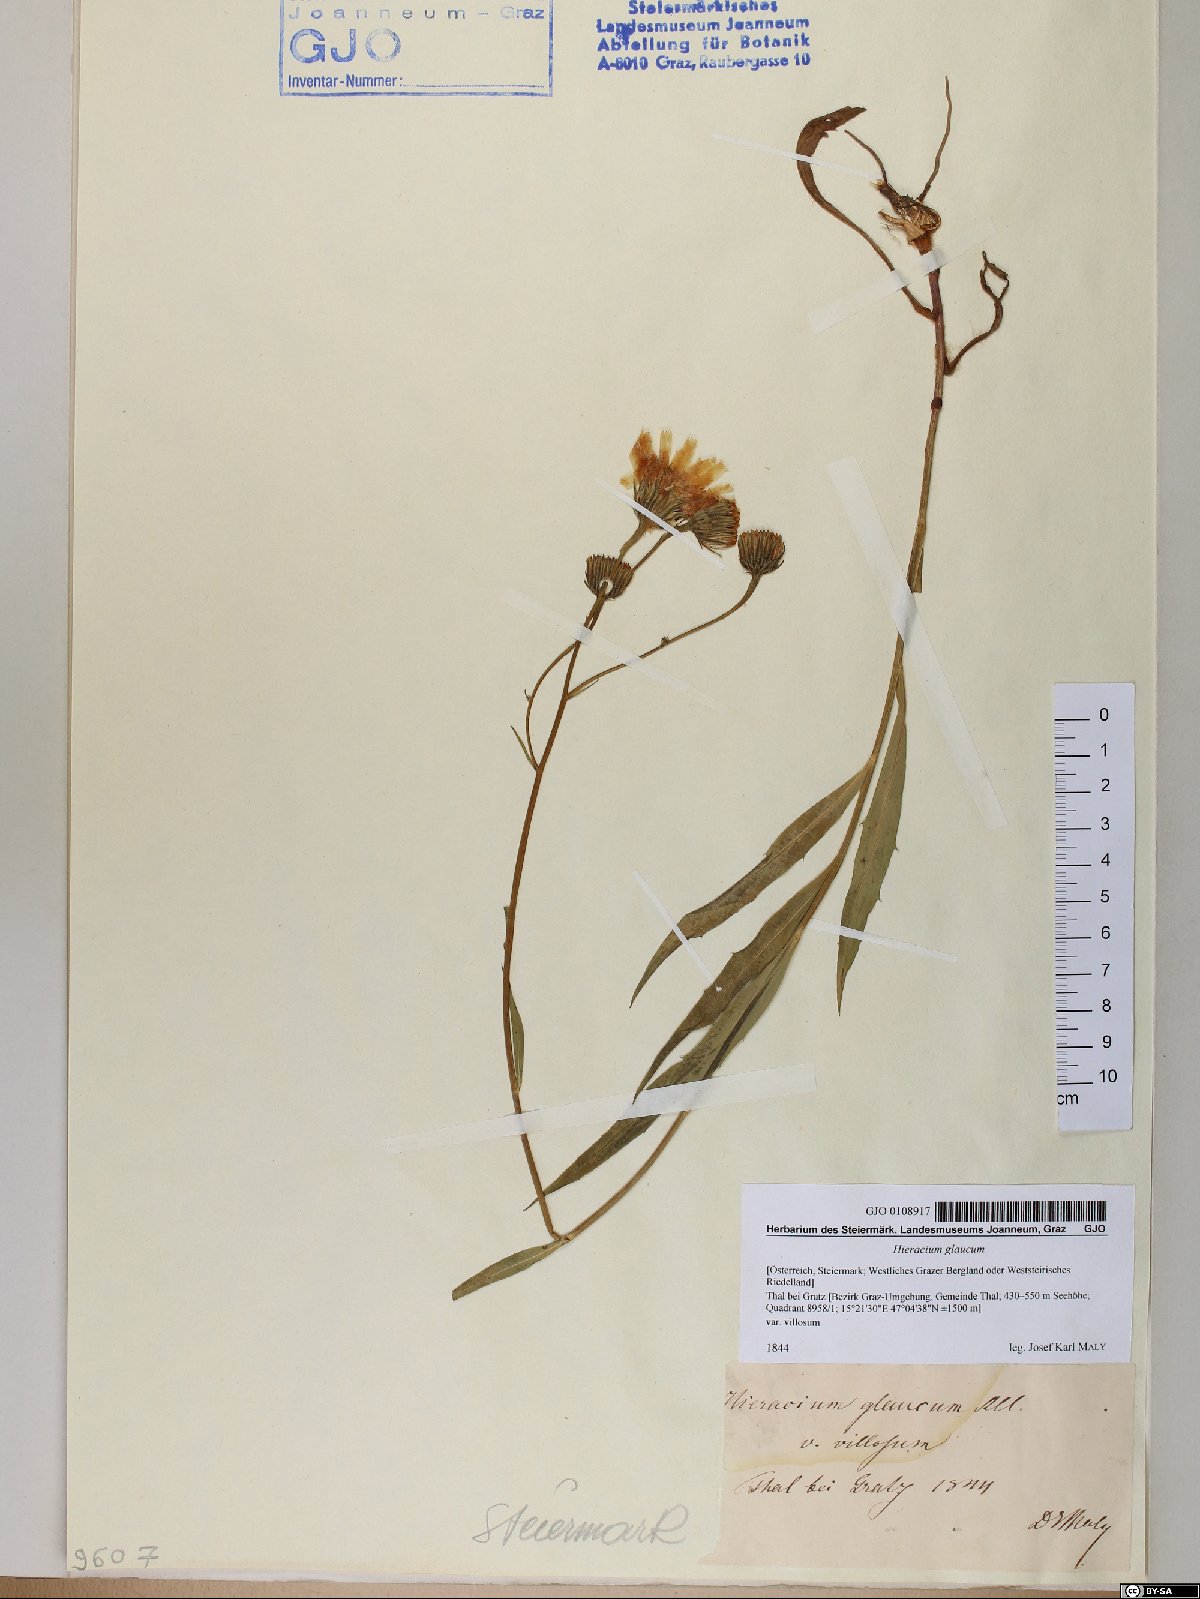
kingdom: Plantae
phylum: Tracheophyta
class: Magnoliopsida
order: Asterales
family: Asteraceae
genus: Hieracium
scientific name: Hieracium glaucum
